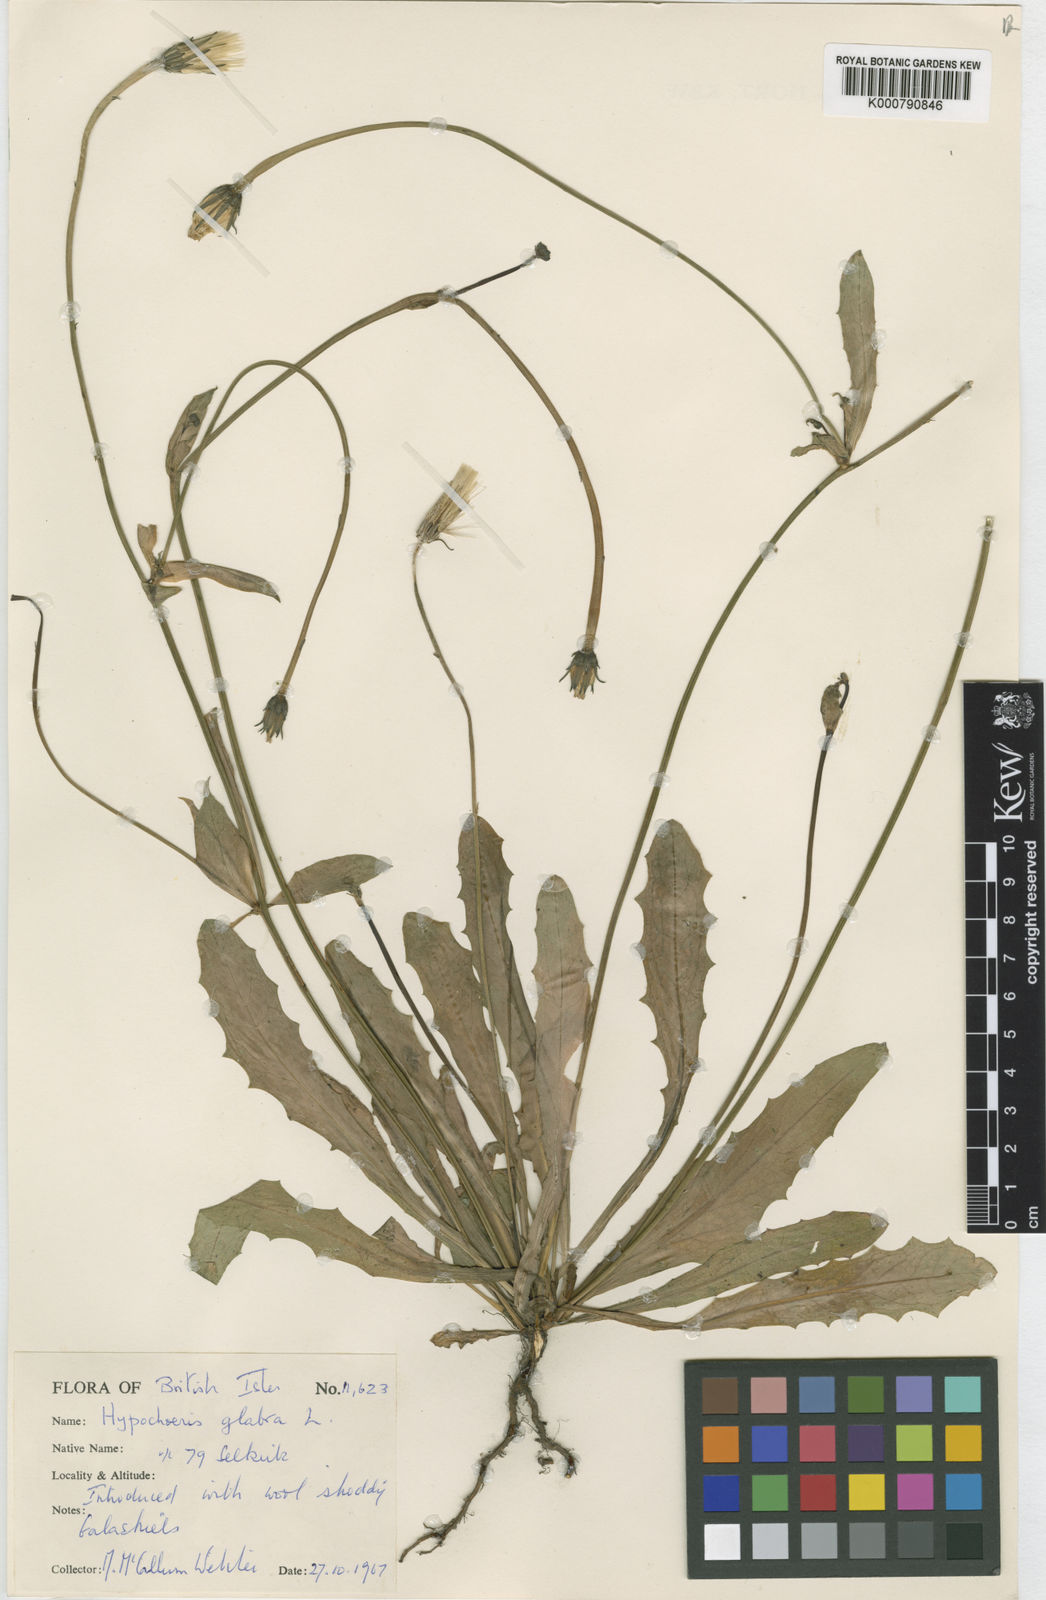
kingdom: Plantae
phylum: Tracheophyta
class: Magnoliopsida
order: Asterales
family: Asteraceae
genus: Hypochaeris
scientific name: Hypochaeris glabra
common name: Smooth catsear
